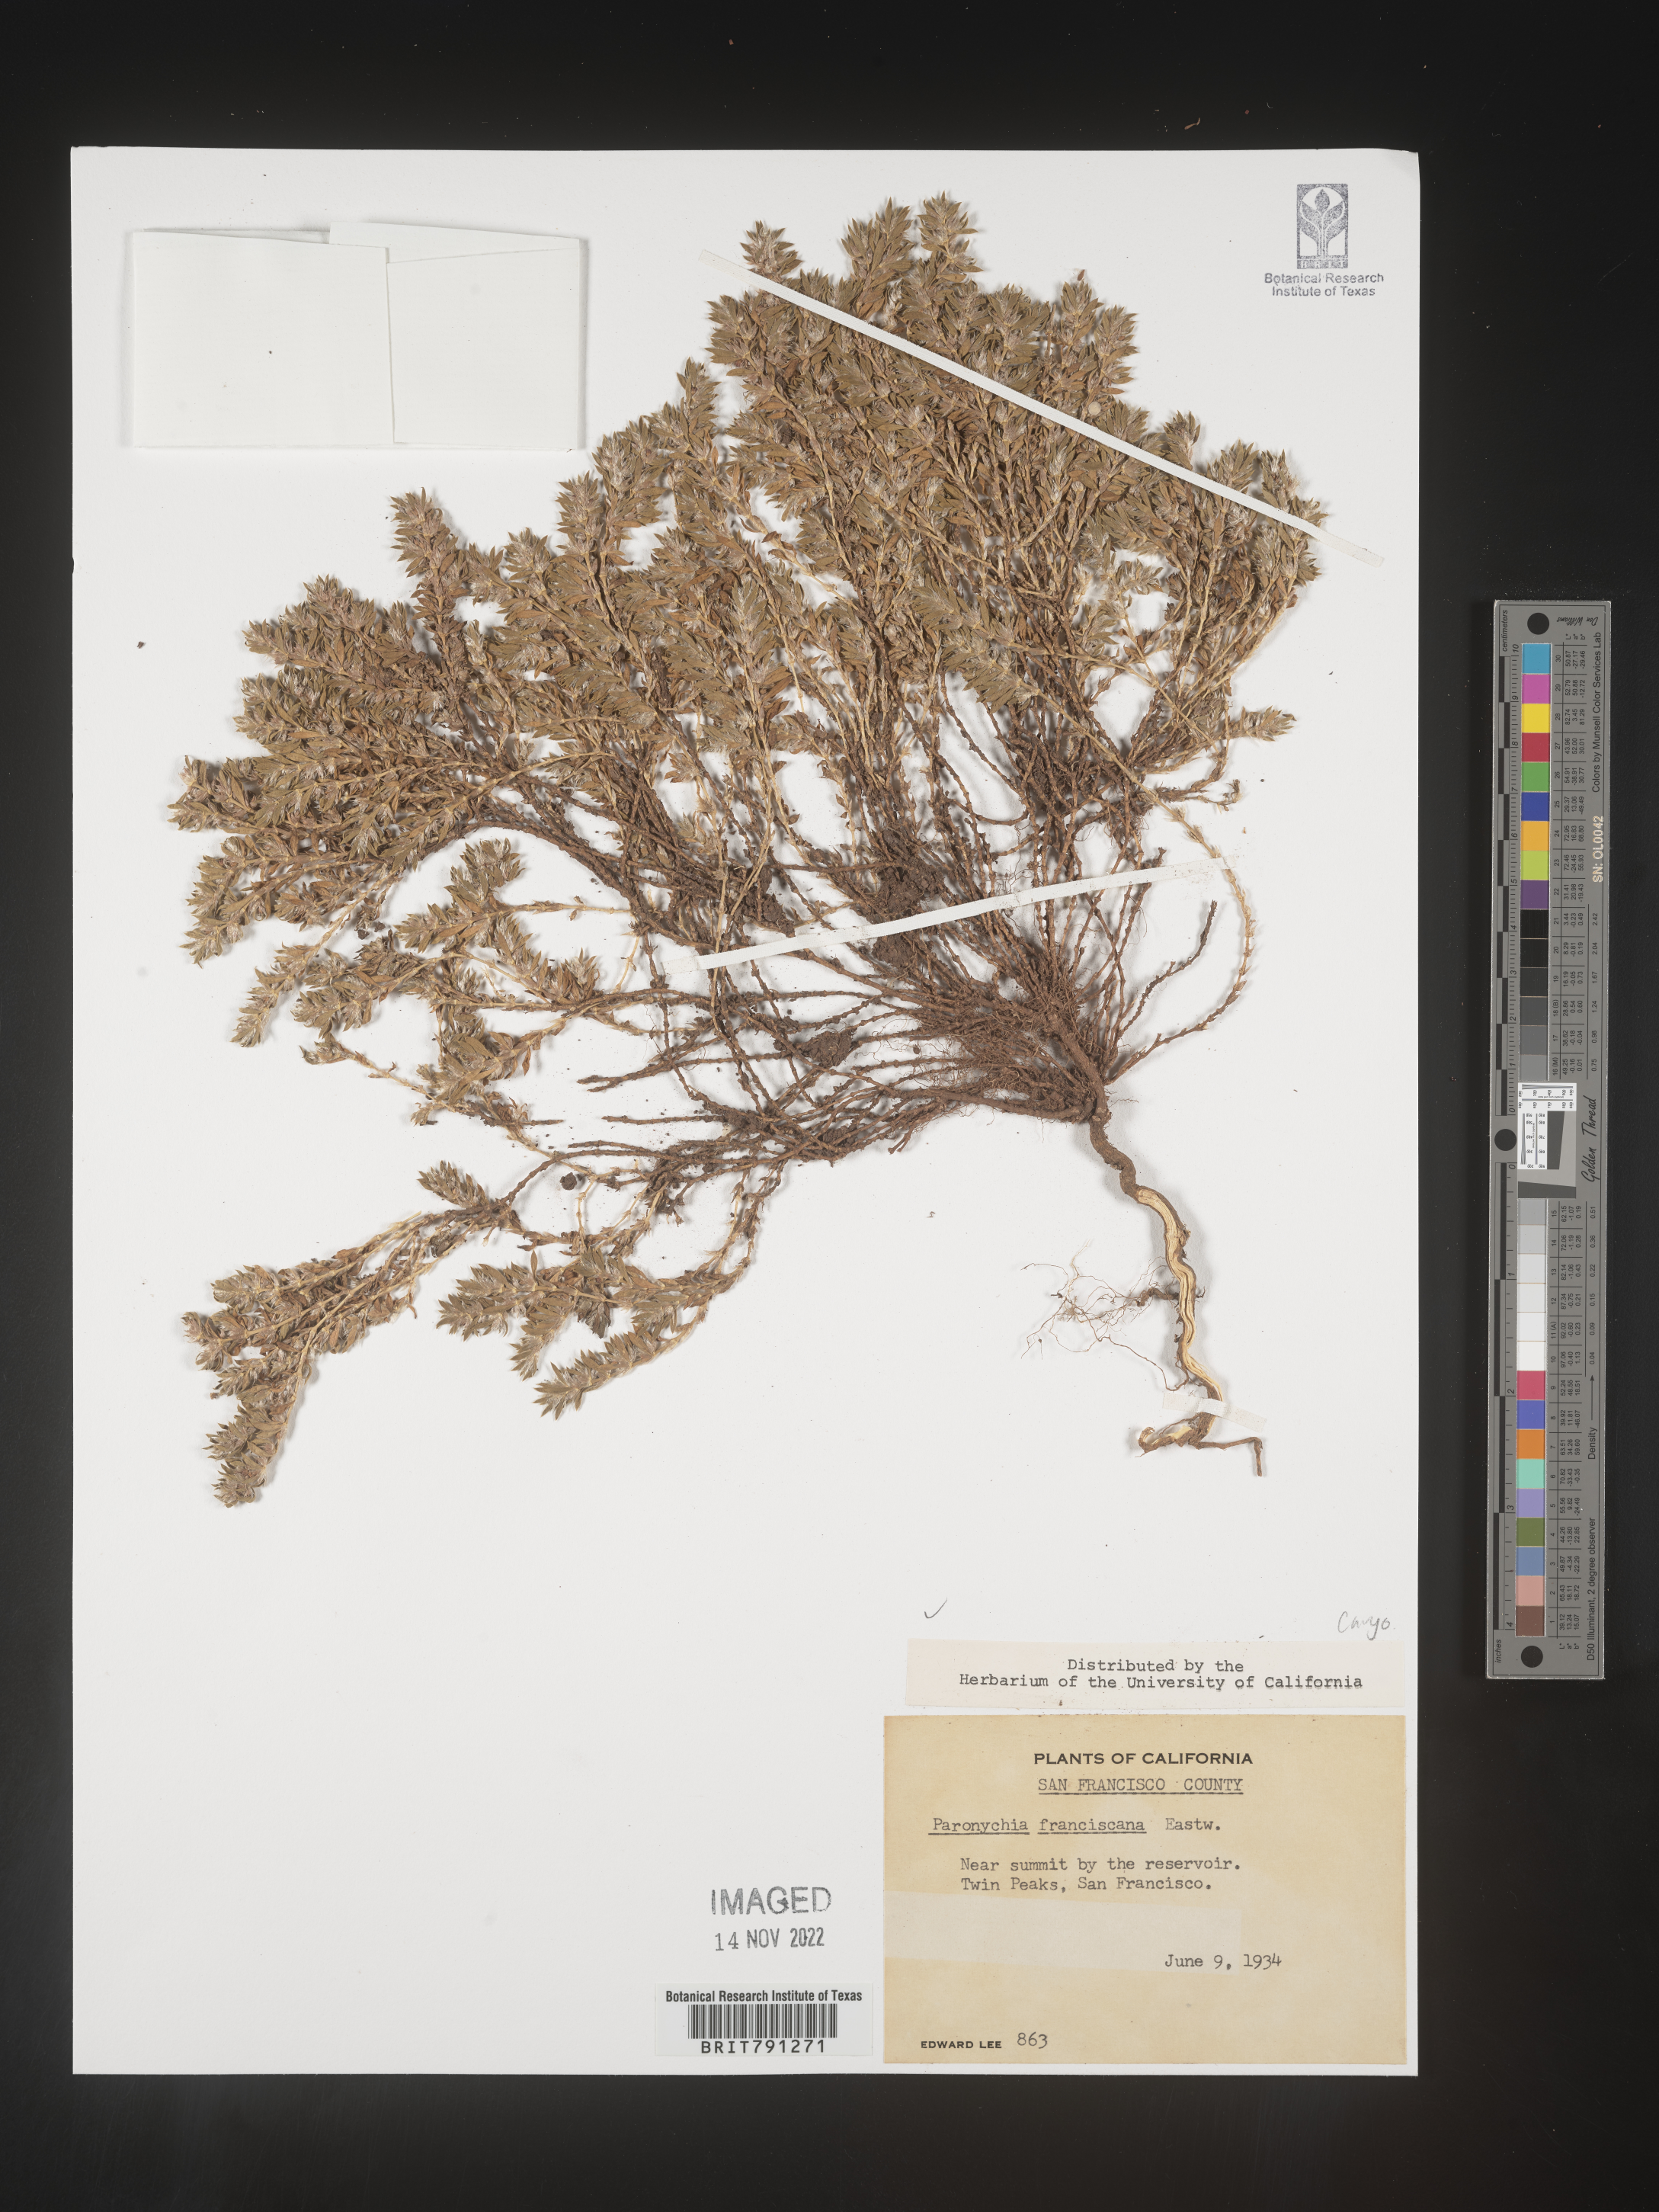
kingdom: Plantae
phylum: Tracheophyta
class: Magnoliopsida
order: Caryophyllales
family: Caryophyllaceae
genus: Paronychia
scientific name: Paronychia franciscana
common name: San francisco nailwort
